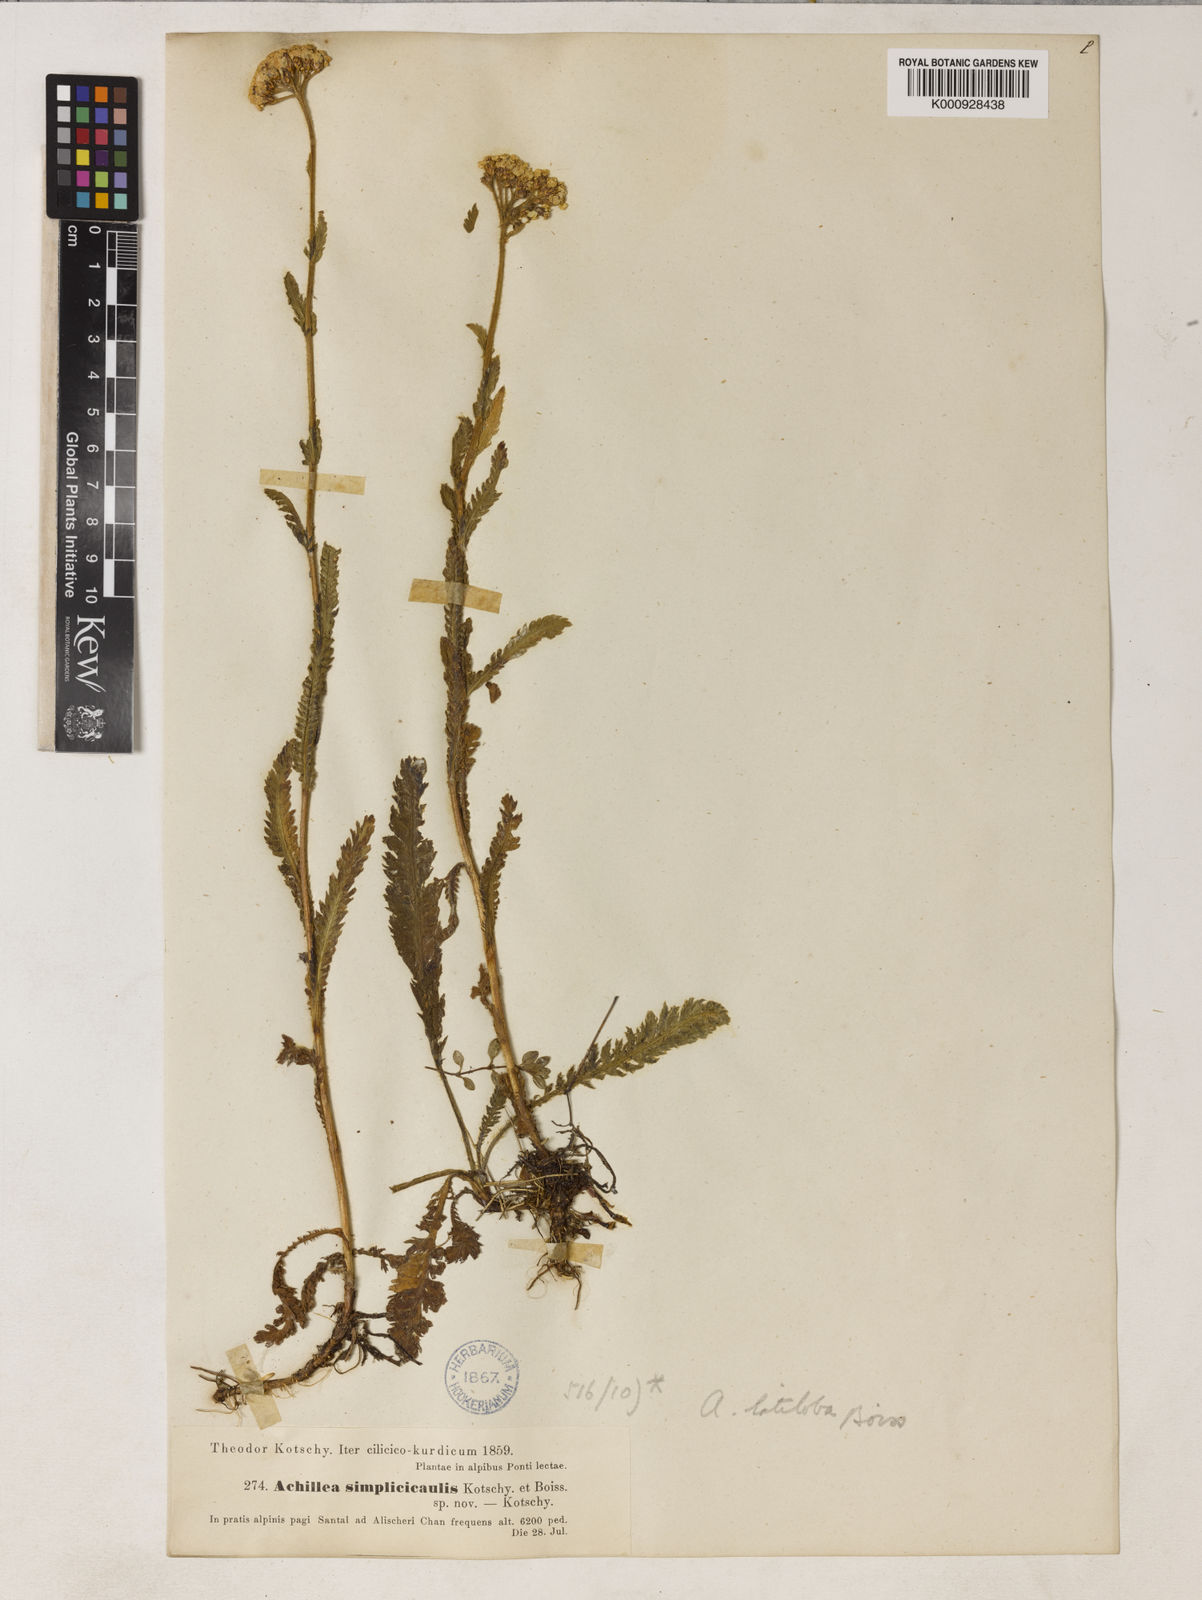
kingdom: Plantae
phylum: Tracheophyta
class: Magnoliopsida
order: Asterales
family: Asteraceae
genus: Achillea
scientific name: Achillea latiloba
